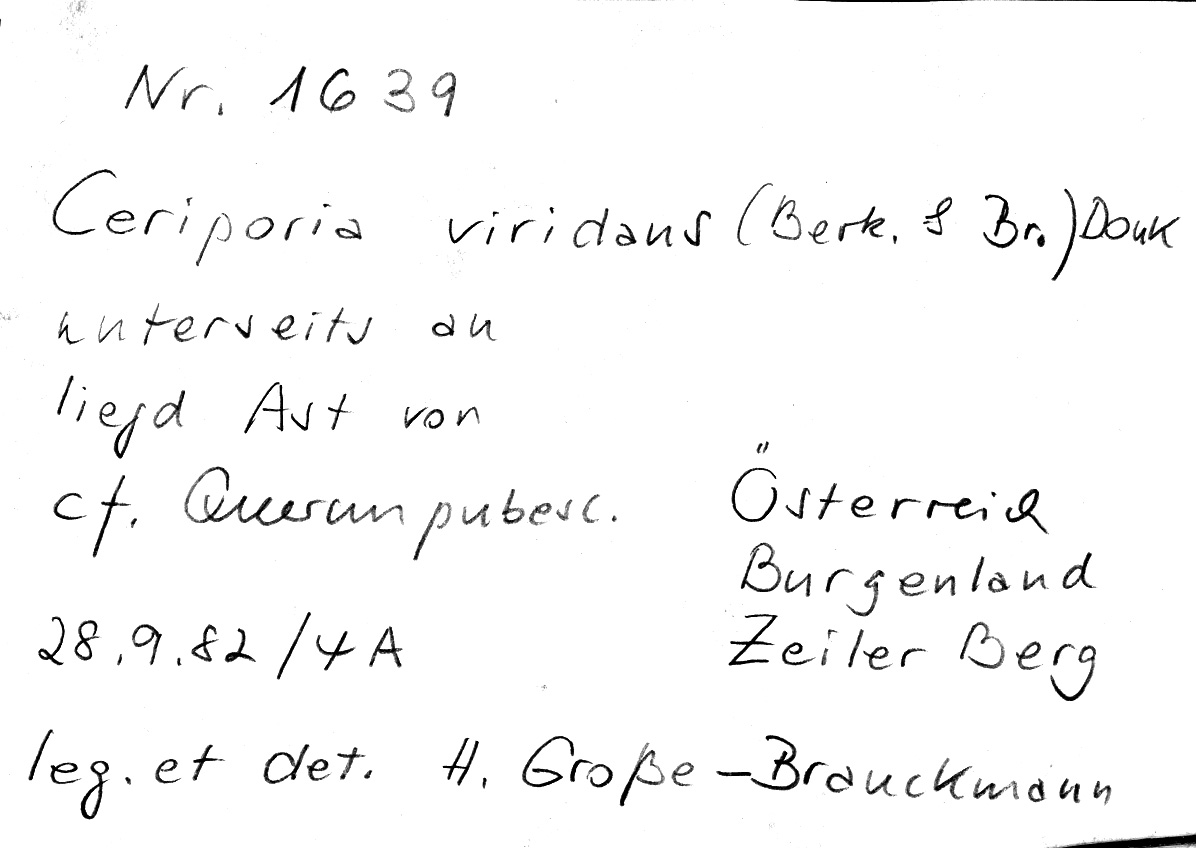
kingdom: Fungi
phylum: Basidiomycota
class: Agaricomycetes
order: Polyporales
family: Irpicaceae
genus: Ceriporia
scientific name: Ceriporia viridans
